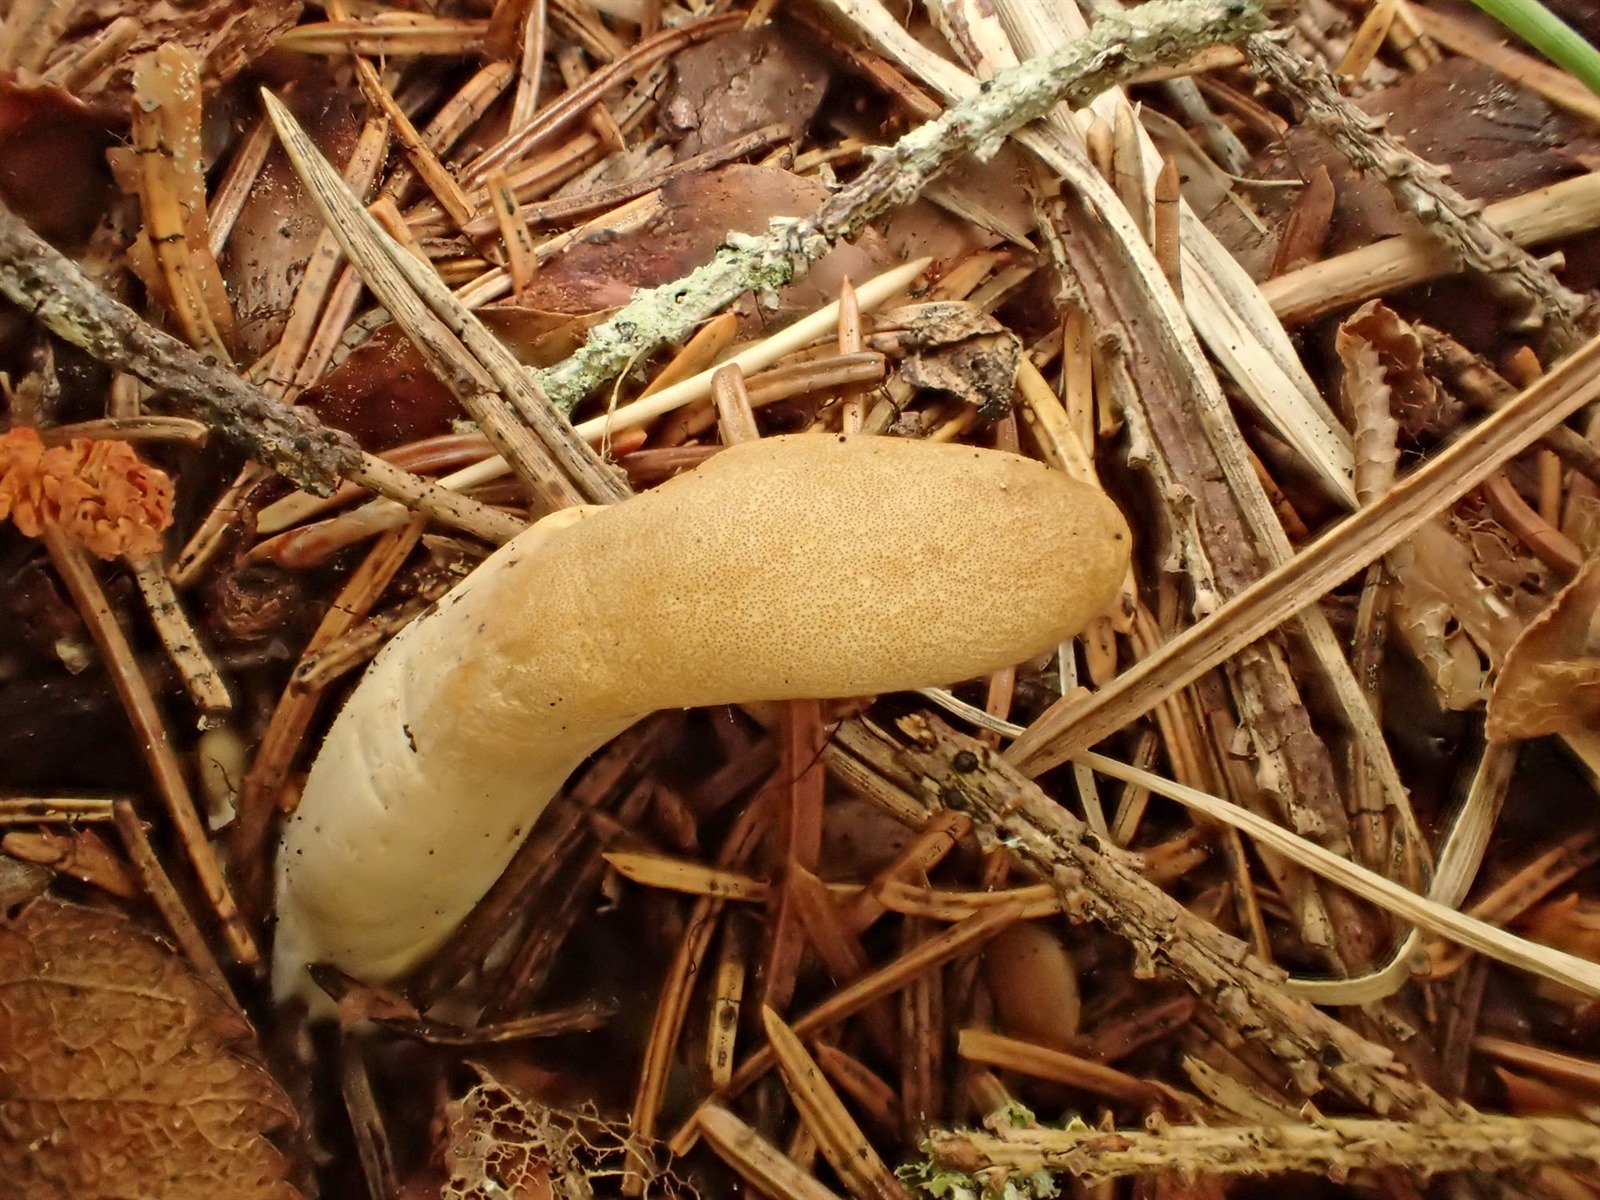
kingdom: Fungi
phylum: Ascomycota
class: Sordariomycetes
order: Hypocreales
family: Hypocreaceae
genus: Trichoderma
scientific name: Trichoderma alutaceum
